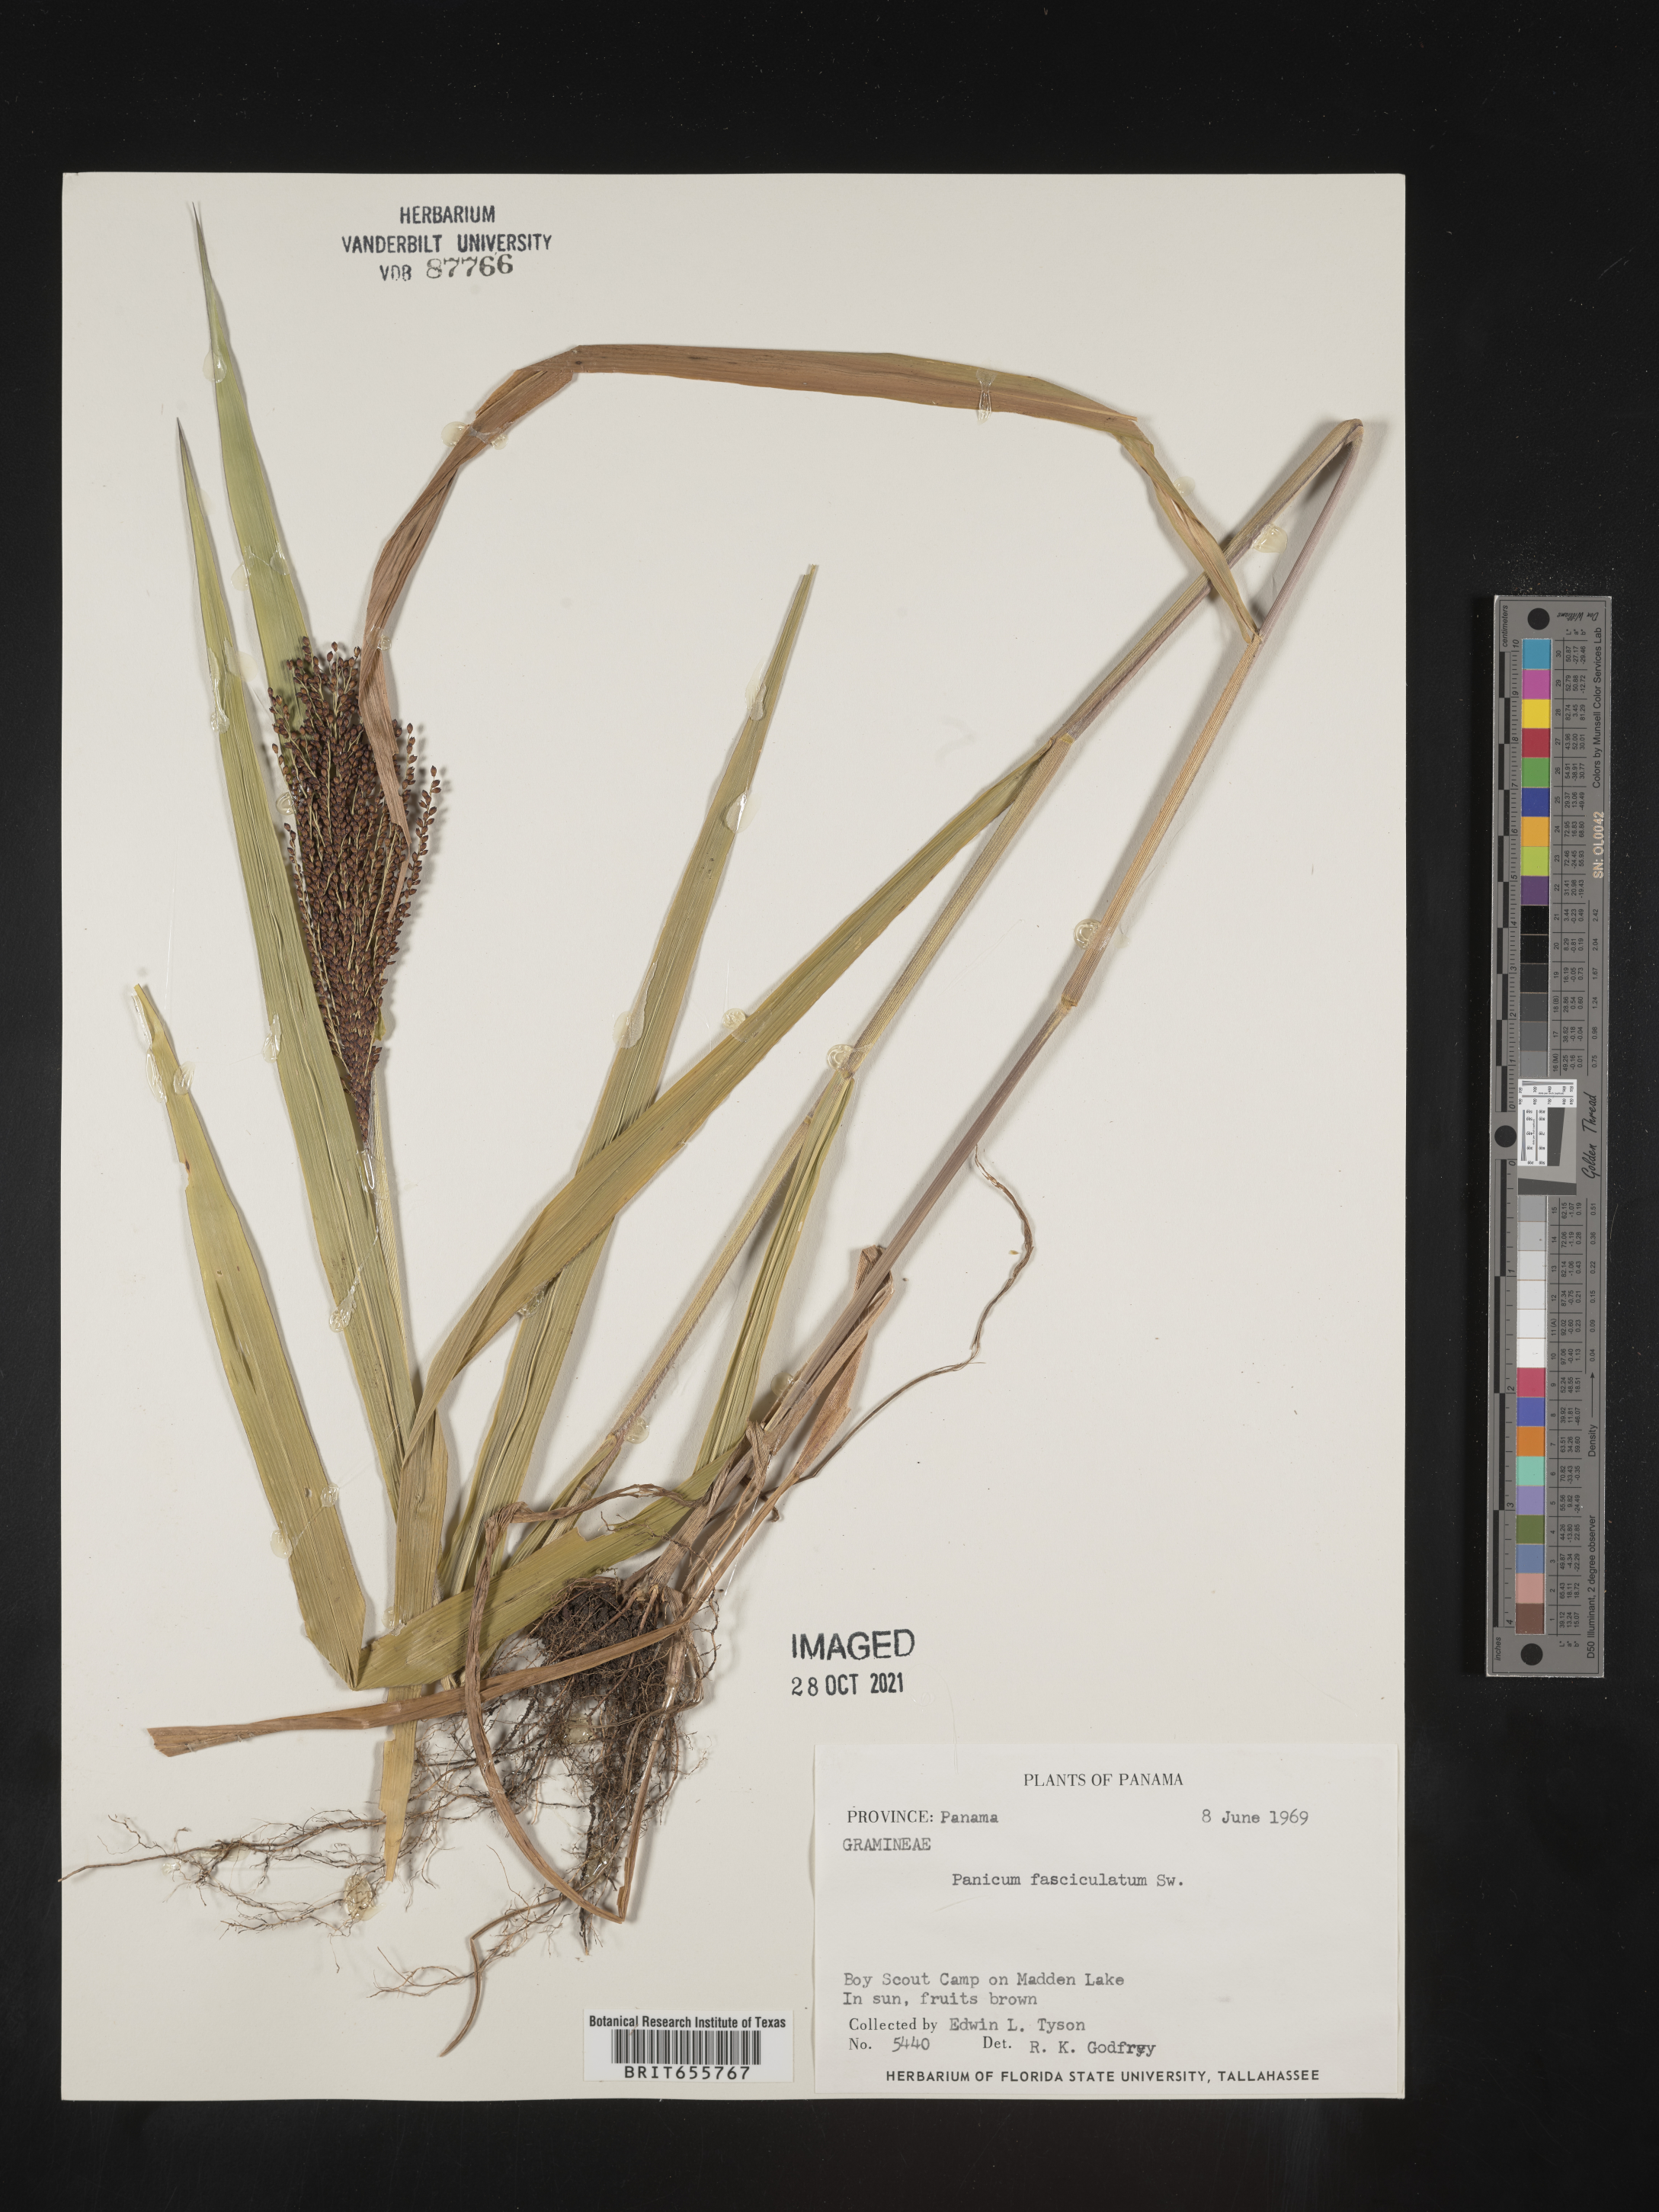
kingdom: Plantae
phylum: Tracheophyta
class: Liliopsida
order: Poales
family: Poaceae
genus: Panicum
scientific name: Panicum
